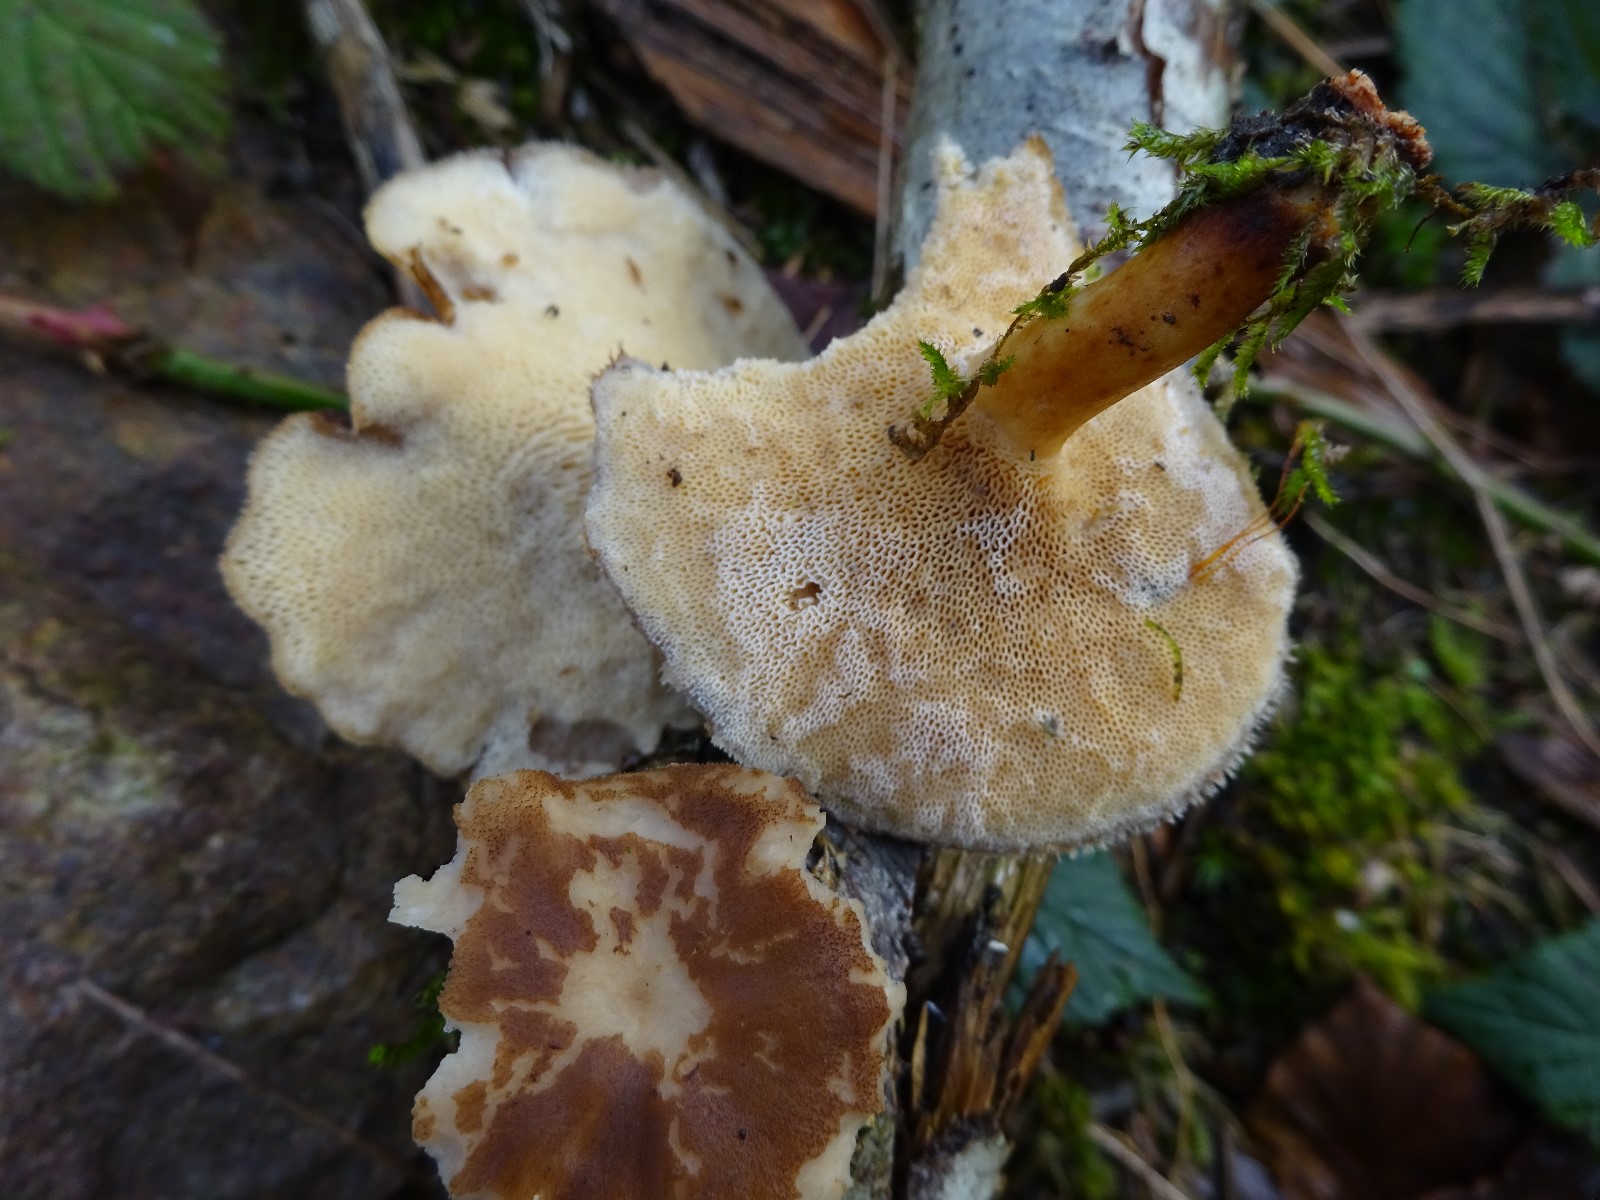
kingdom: Fungi
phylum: Basidiomycota
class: Agaricomycetes
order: Polyporales
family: Polyporaceae
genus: Lentinus
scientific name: Lentinus brumalis
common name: vinter-stilkporesvamp
